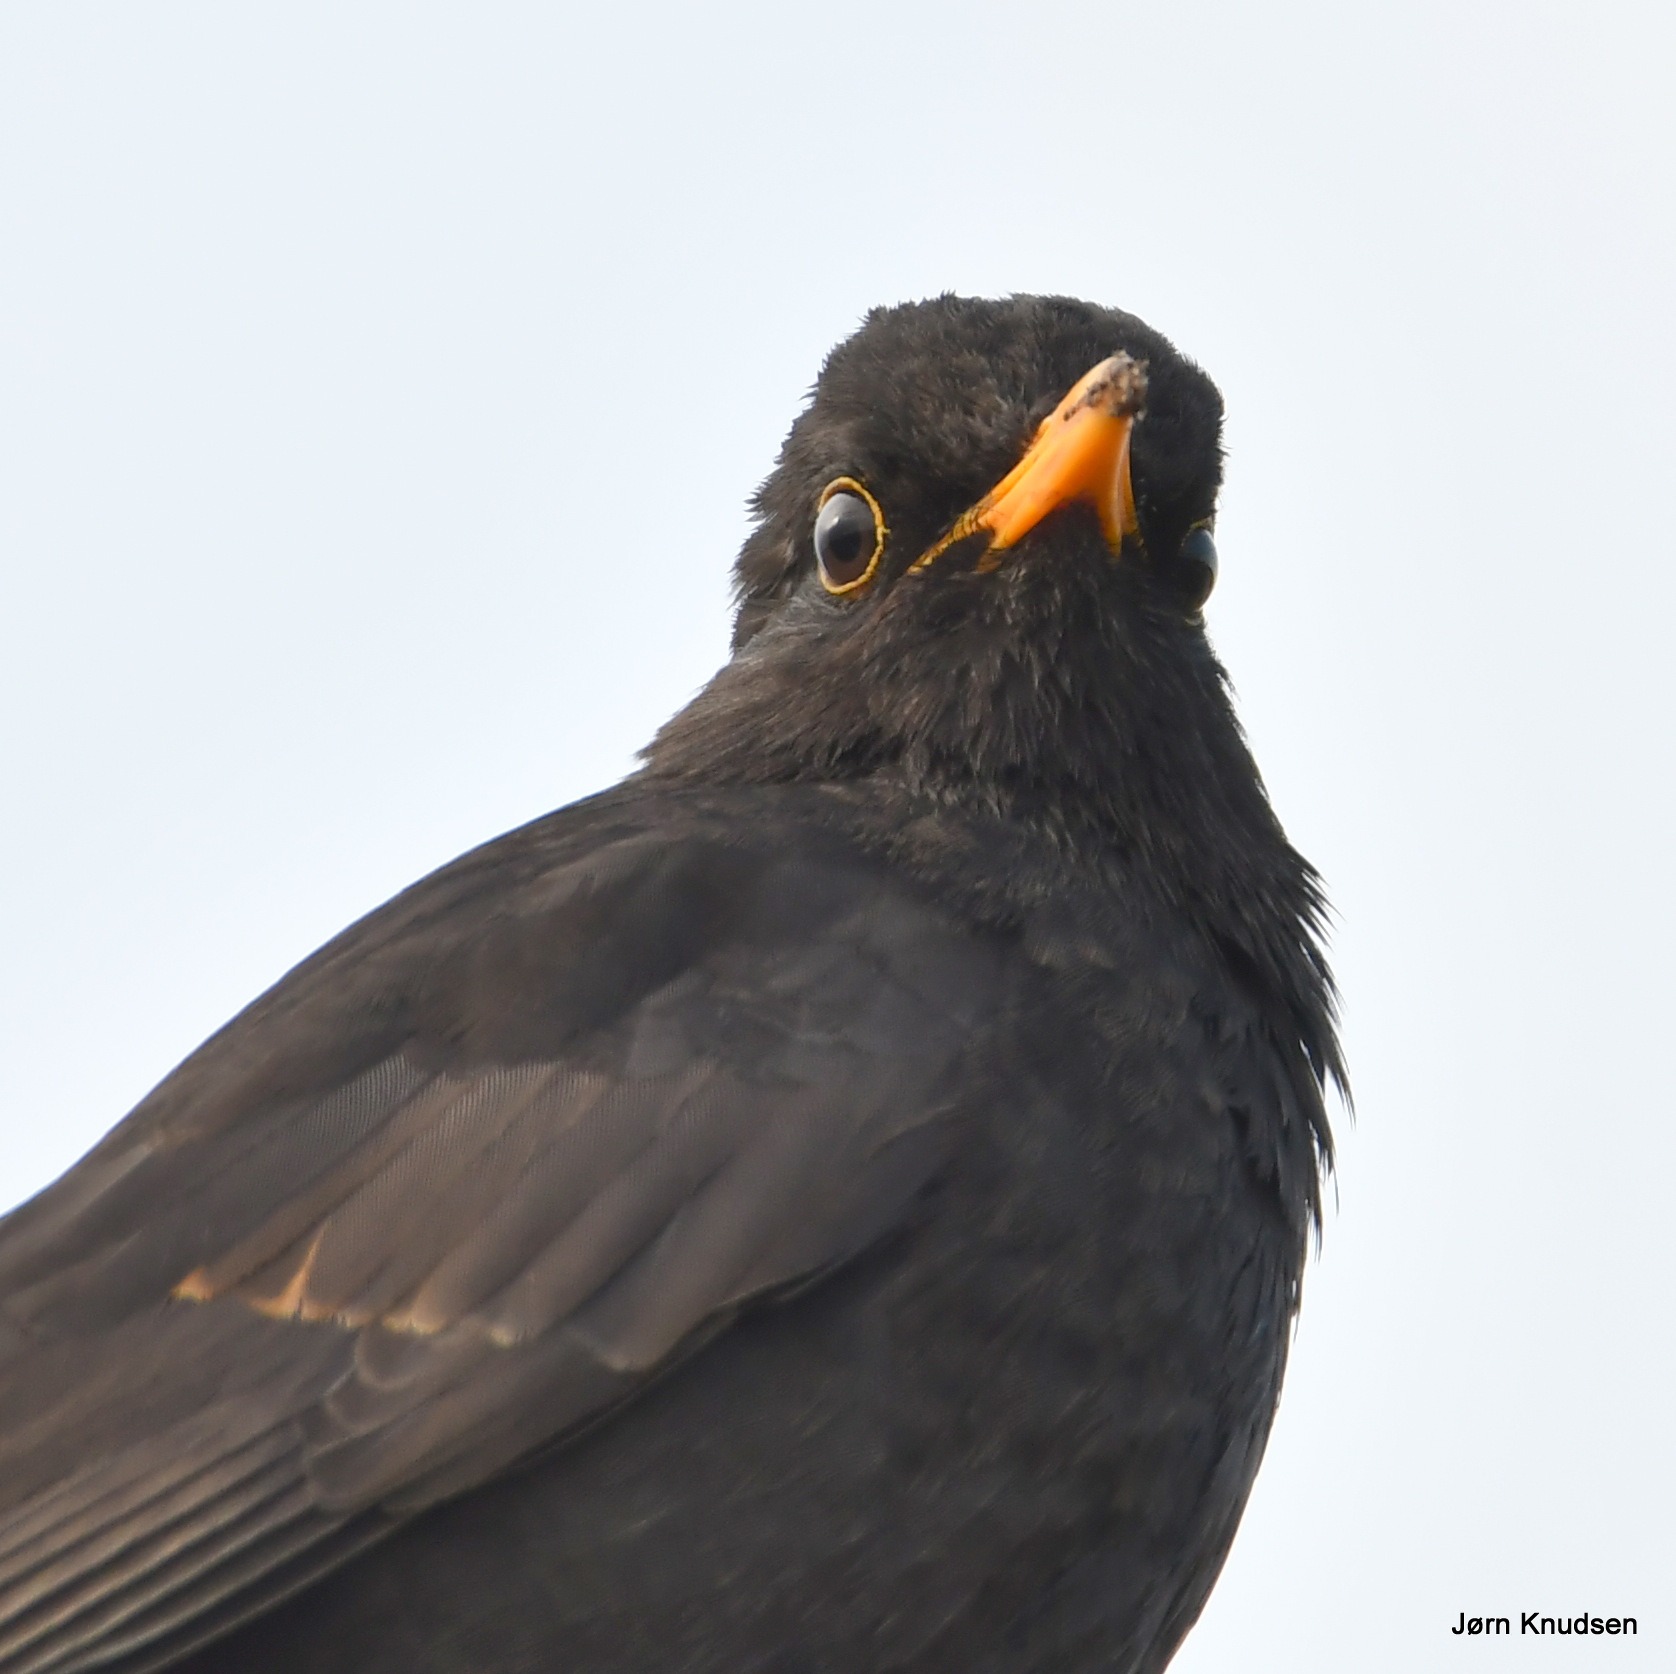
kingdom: Animalia
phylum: Chordata
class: Aves
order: Passeriformes
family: Turdidae
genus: Turdus
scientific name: Turdus merula
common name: Solsort
